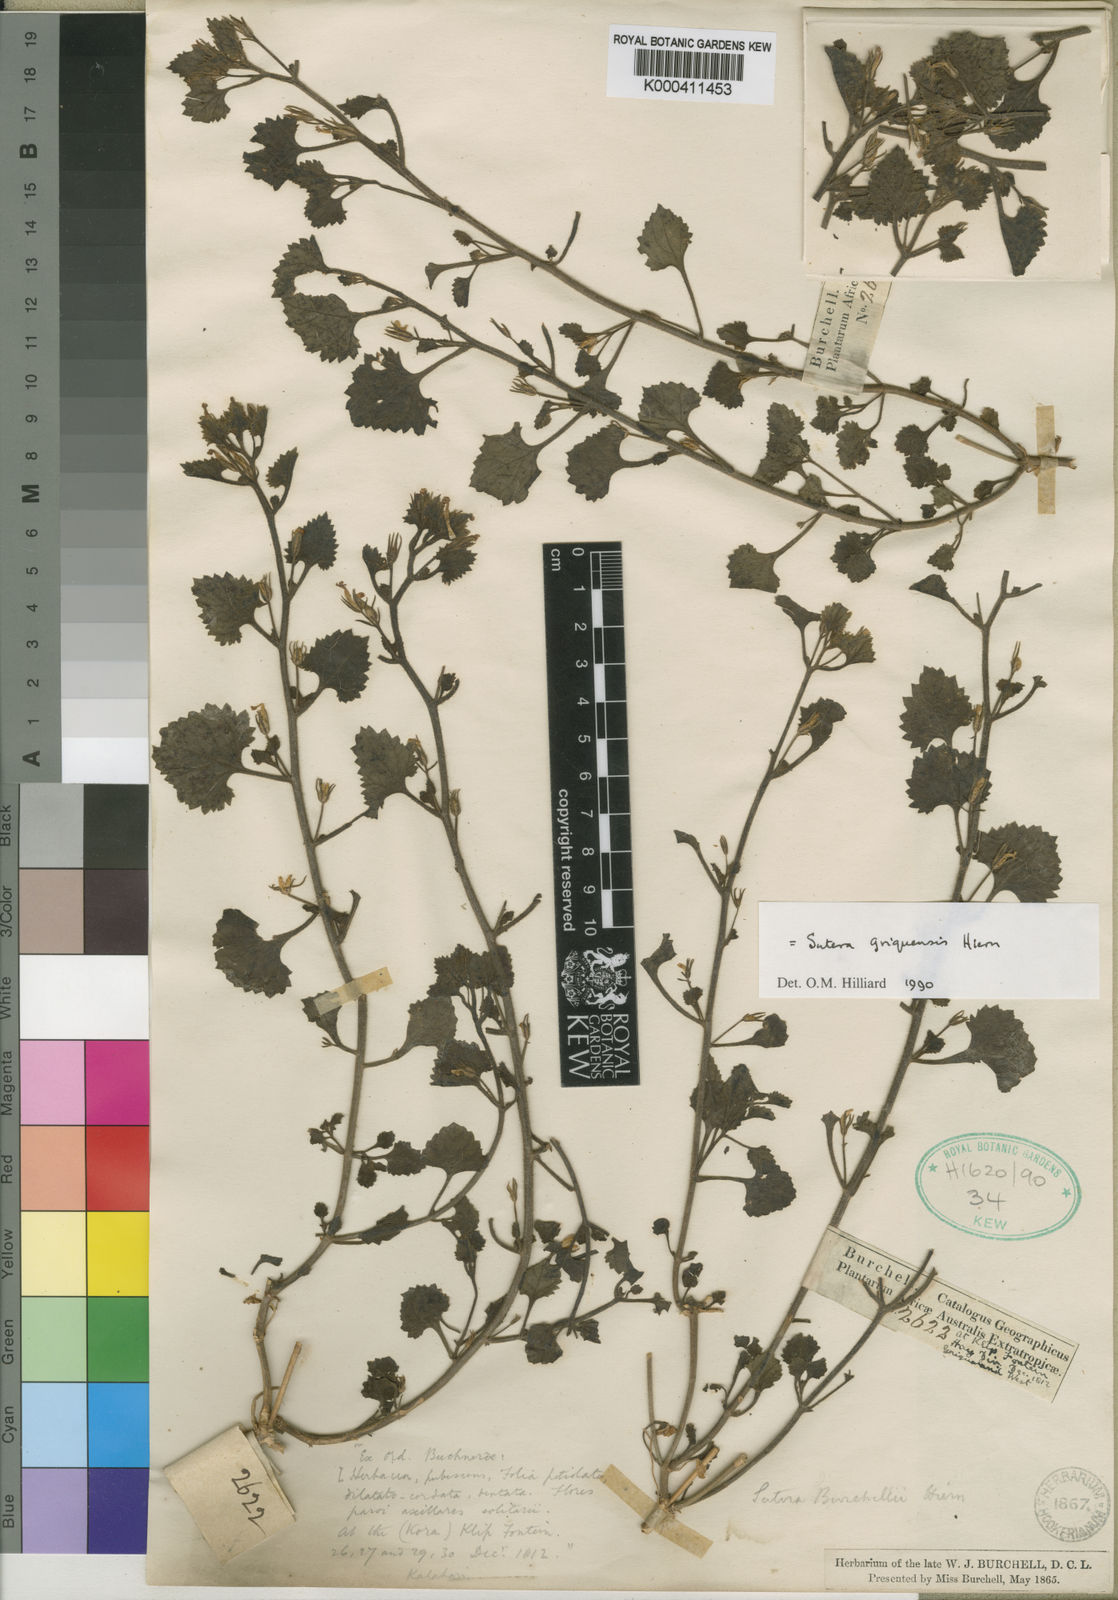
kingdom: Plantae
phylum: Tracheophyta
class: Magnoliopsida
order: Lamiales
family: Scrophulariaceae
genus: Sutera
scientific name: Sutera griquensis
